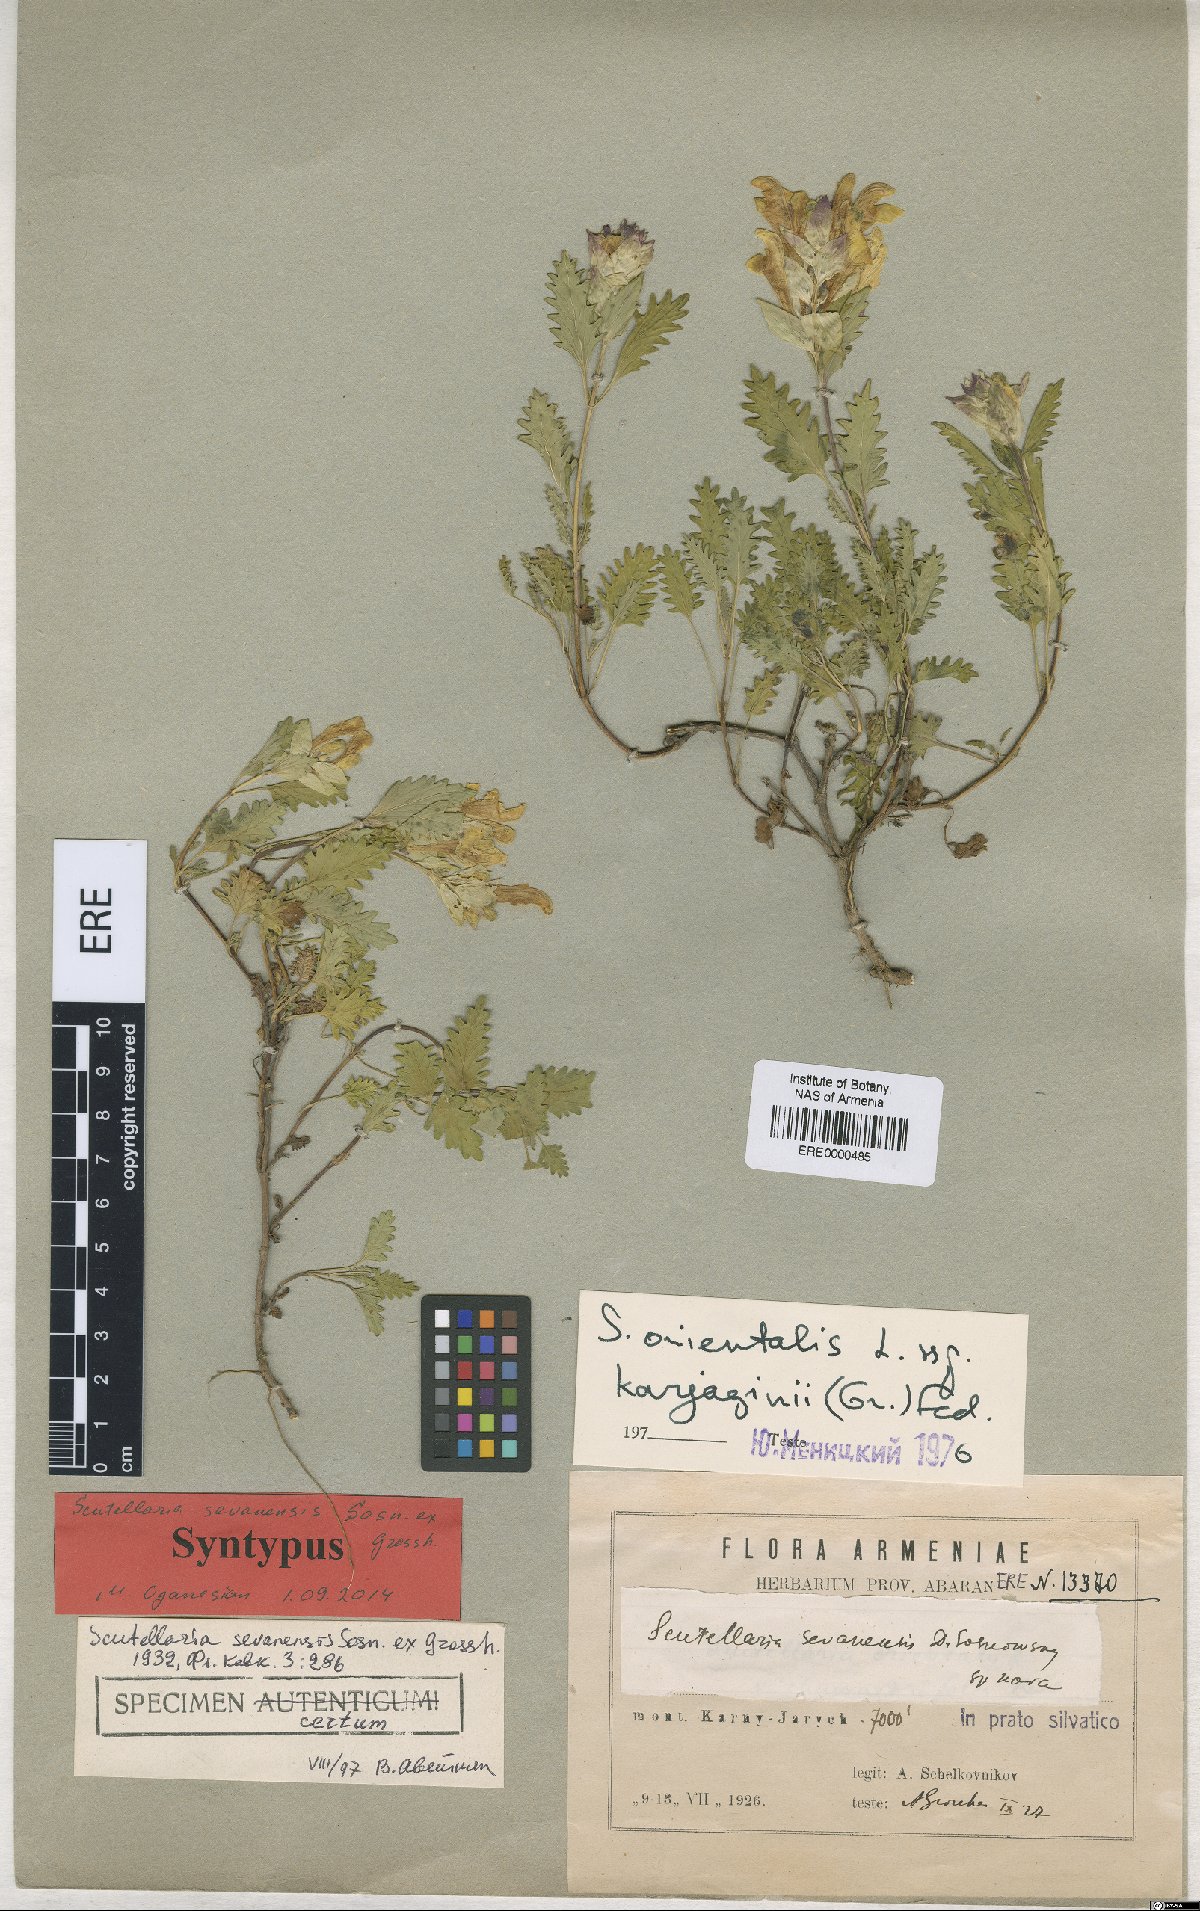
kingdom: Plantae
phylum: Tracheophyta
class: Magnoliopsida
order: Lamiales
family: Lamiaceae
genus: Scutellaria
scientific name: Scutellaria sevanensis
